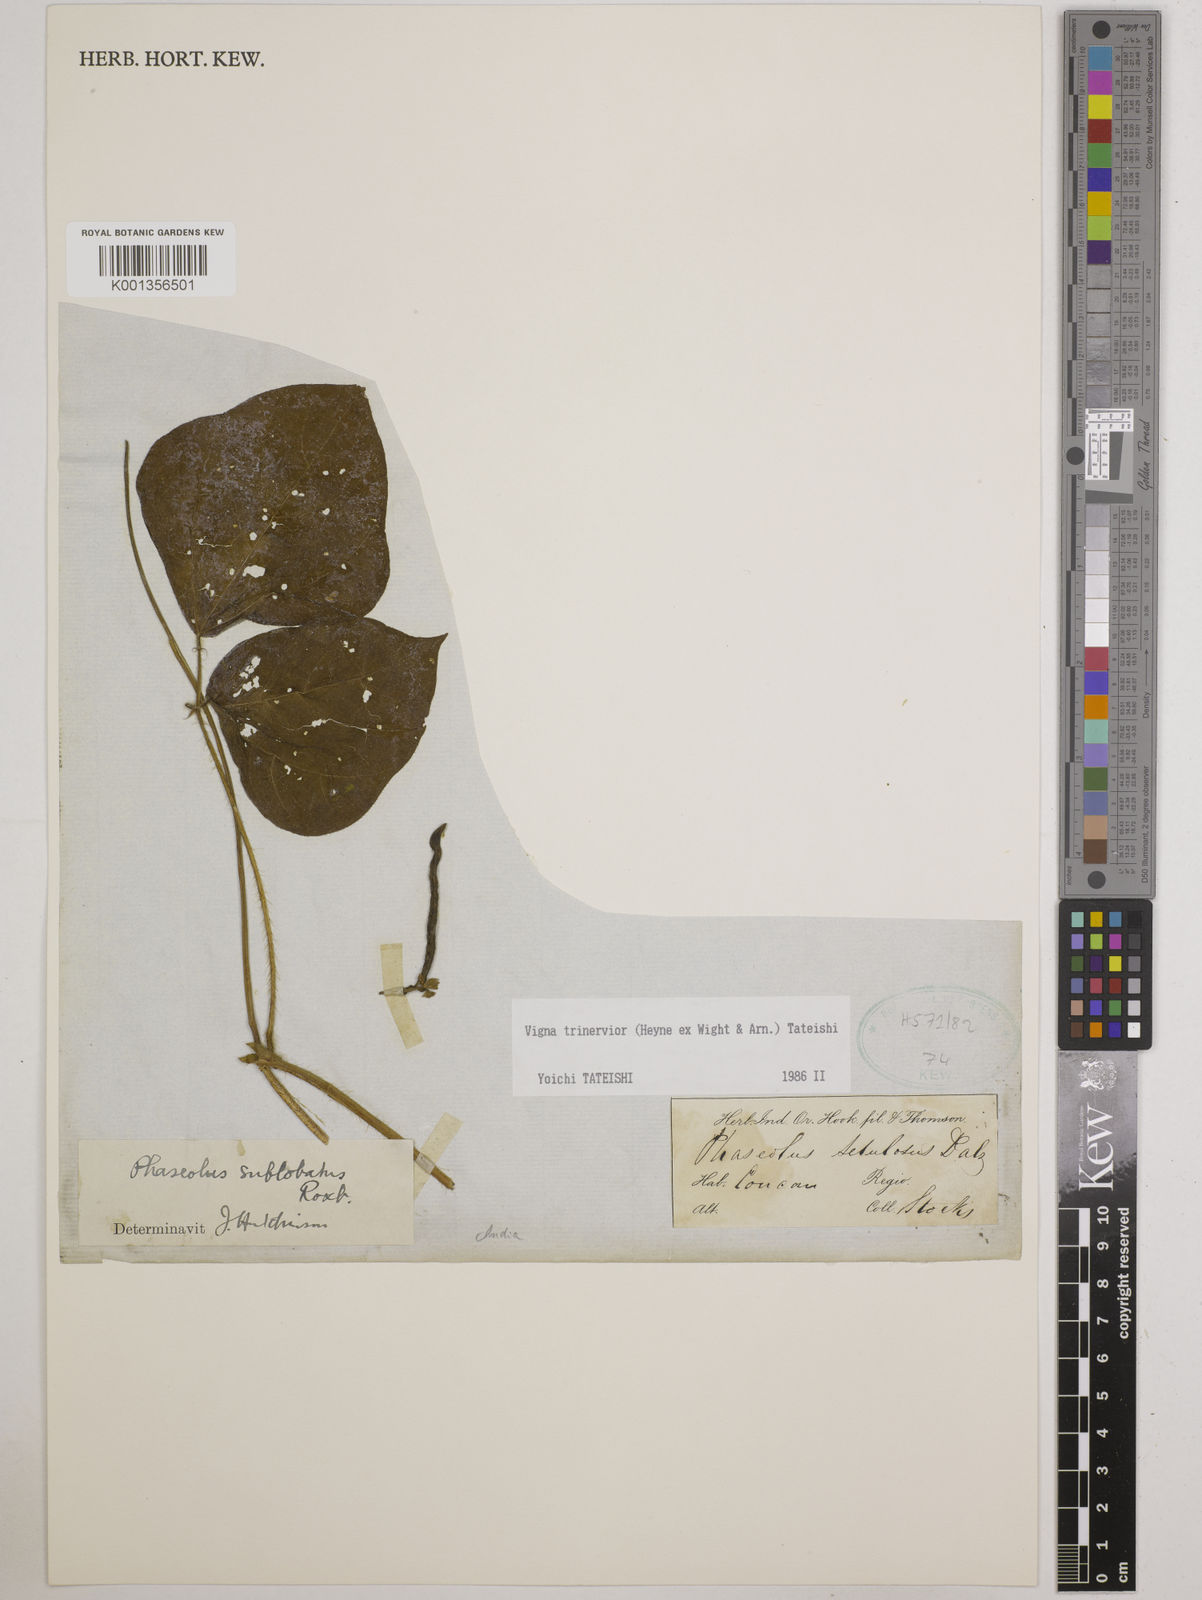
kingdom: Plantae
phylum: Tracheophyta
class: Magnoliopsida
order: Fabales
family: Fabaceae
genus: Vigna
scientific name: Vigna radiata
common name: Mung-bean
